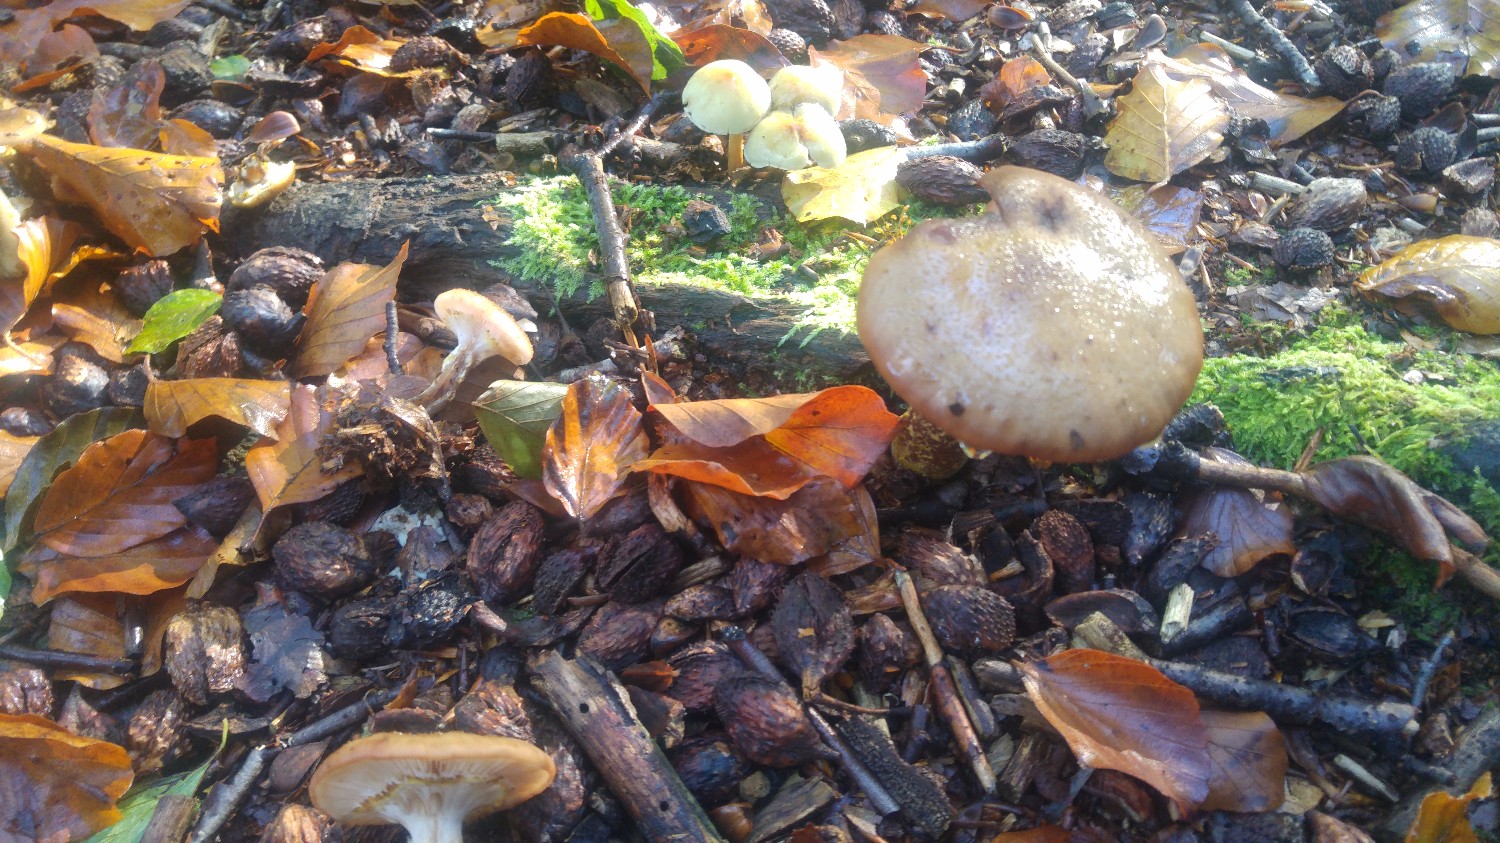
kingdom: Fungi
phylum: Basidiomycota
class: Agaricomycetes
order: Agaricales
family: Physalacriaceae
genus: Armillaria
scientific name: Armillaria lutea
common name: køllestokket honningsvamp
